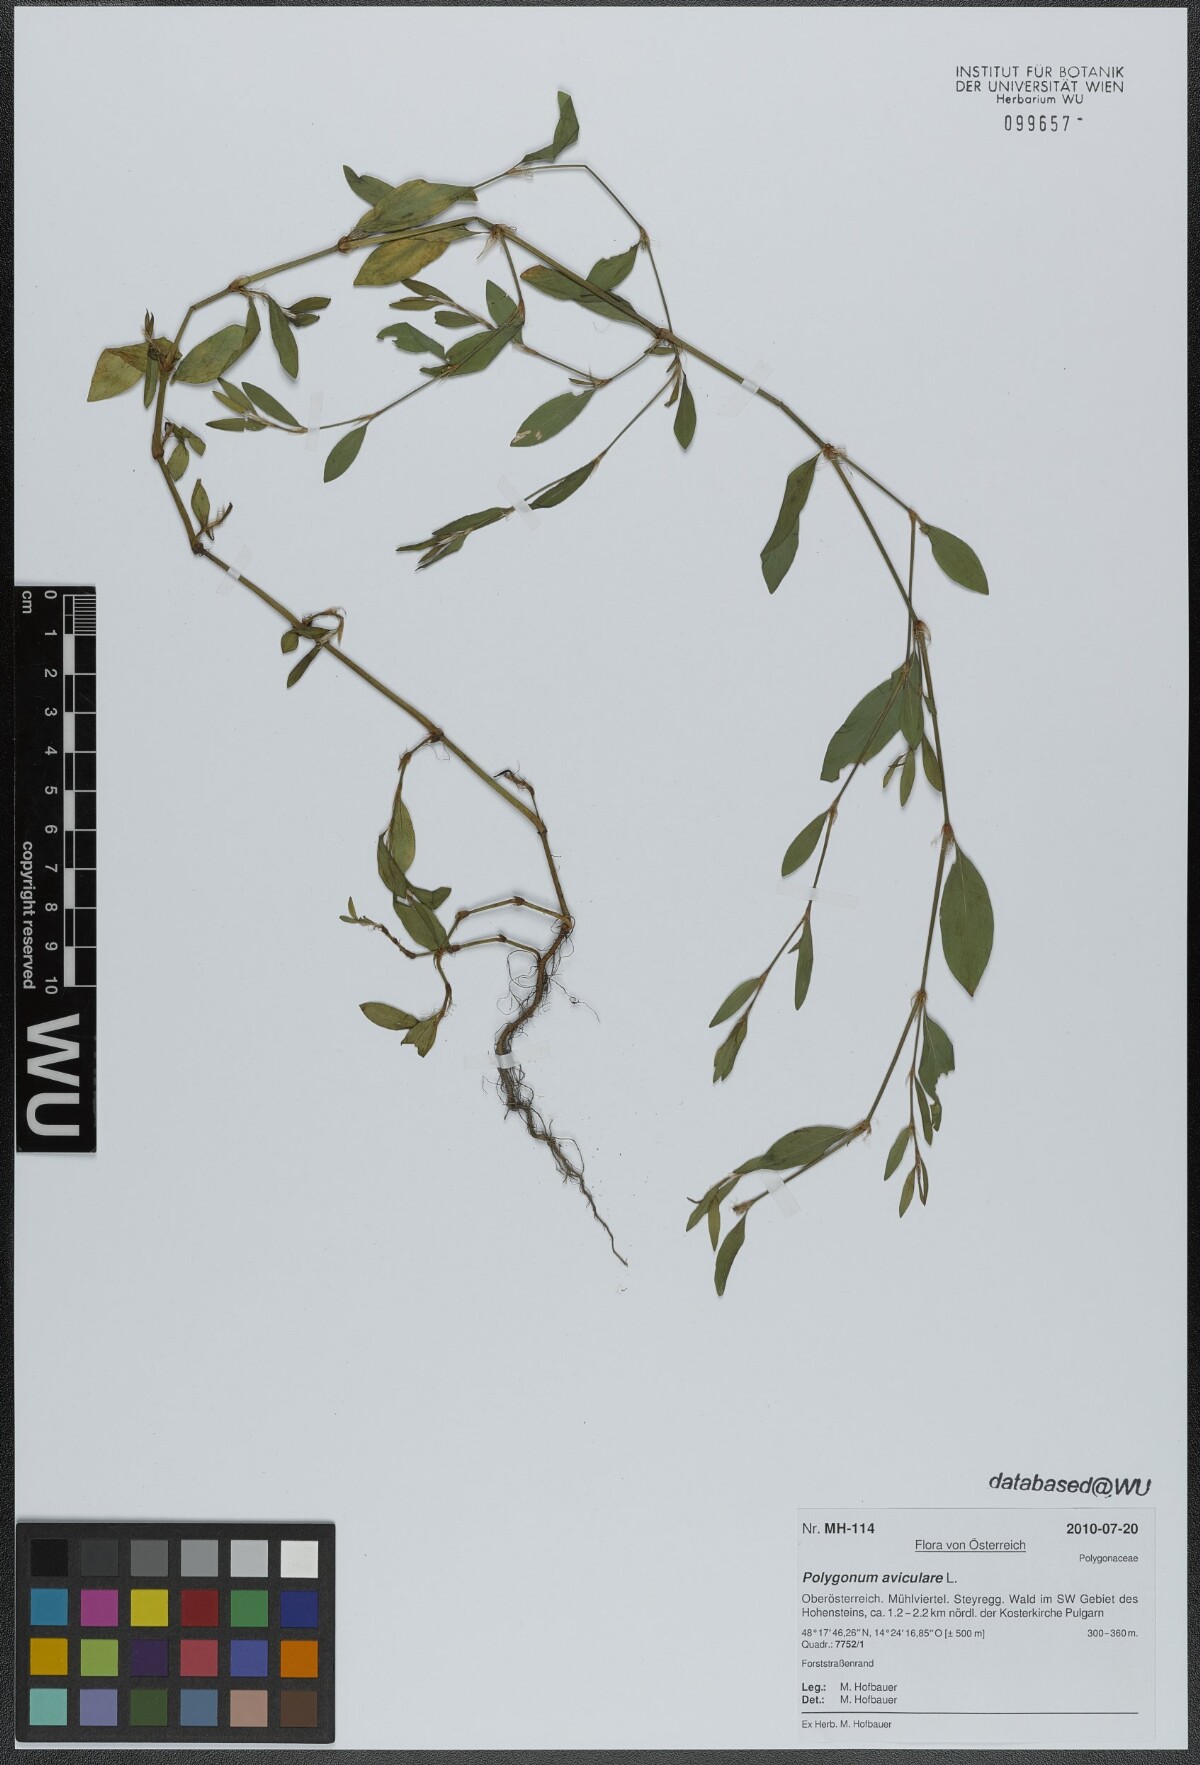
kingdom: Plantae
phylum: Tracheophyta
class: Magnoliopsida
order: Caryophyllales
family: Polygonaceae
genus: Polygonum
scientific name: Polygonum aviculare
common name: Prostrate knotweed
